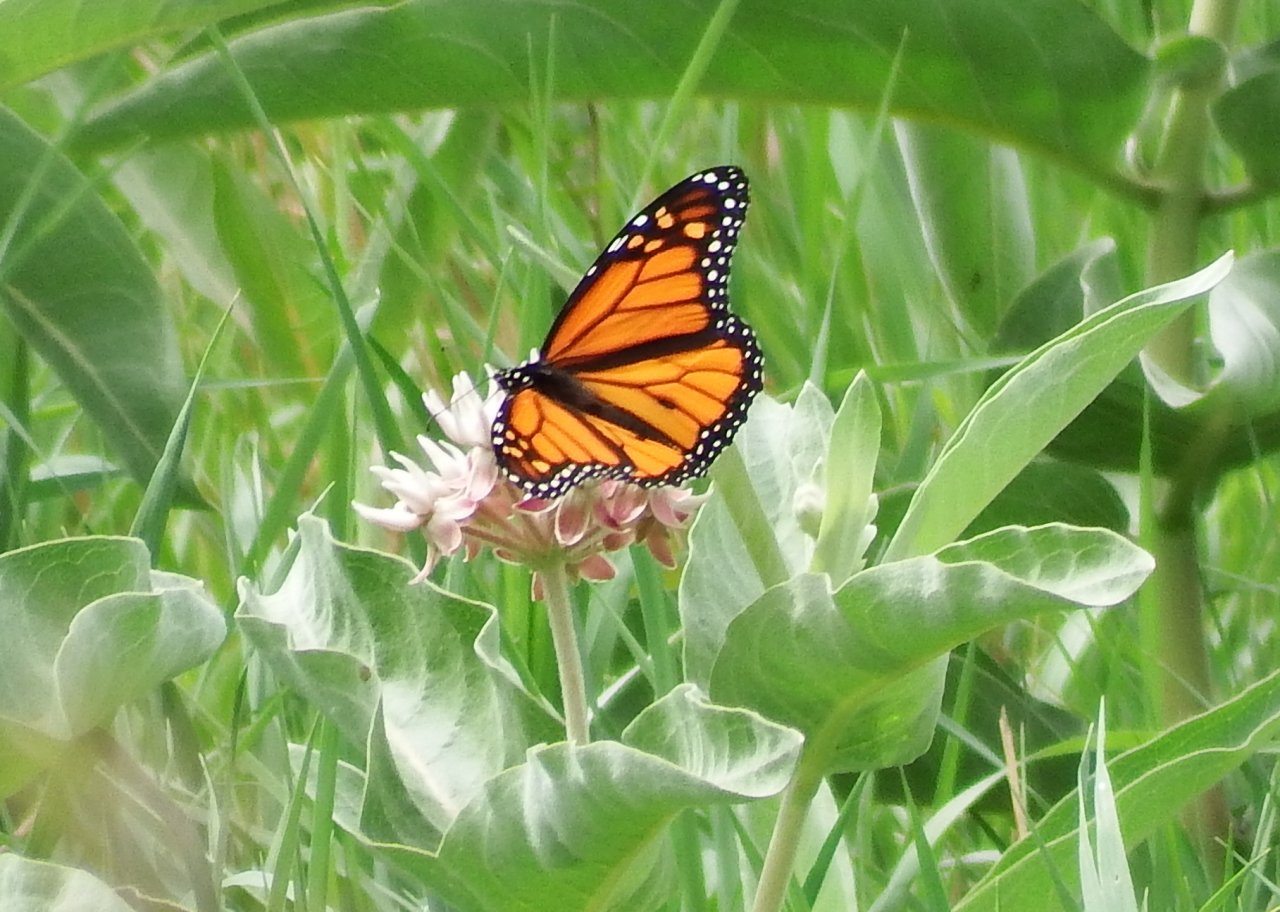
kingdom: Animalia
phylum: Arthropoda
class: Insecta
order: Lepidoptera
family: Nymphalidae
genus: Danaus
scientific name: Danaus plexippus
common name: Monarch
